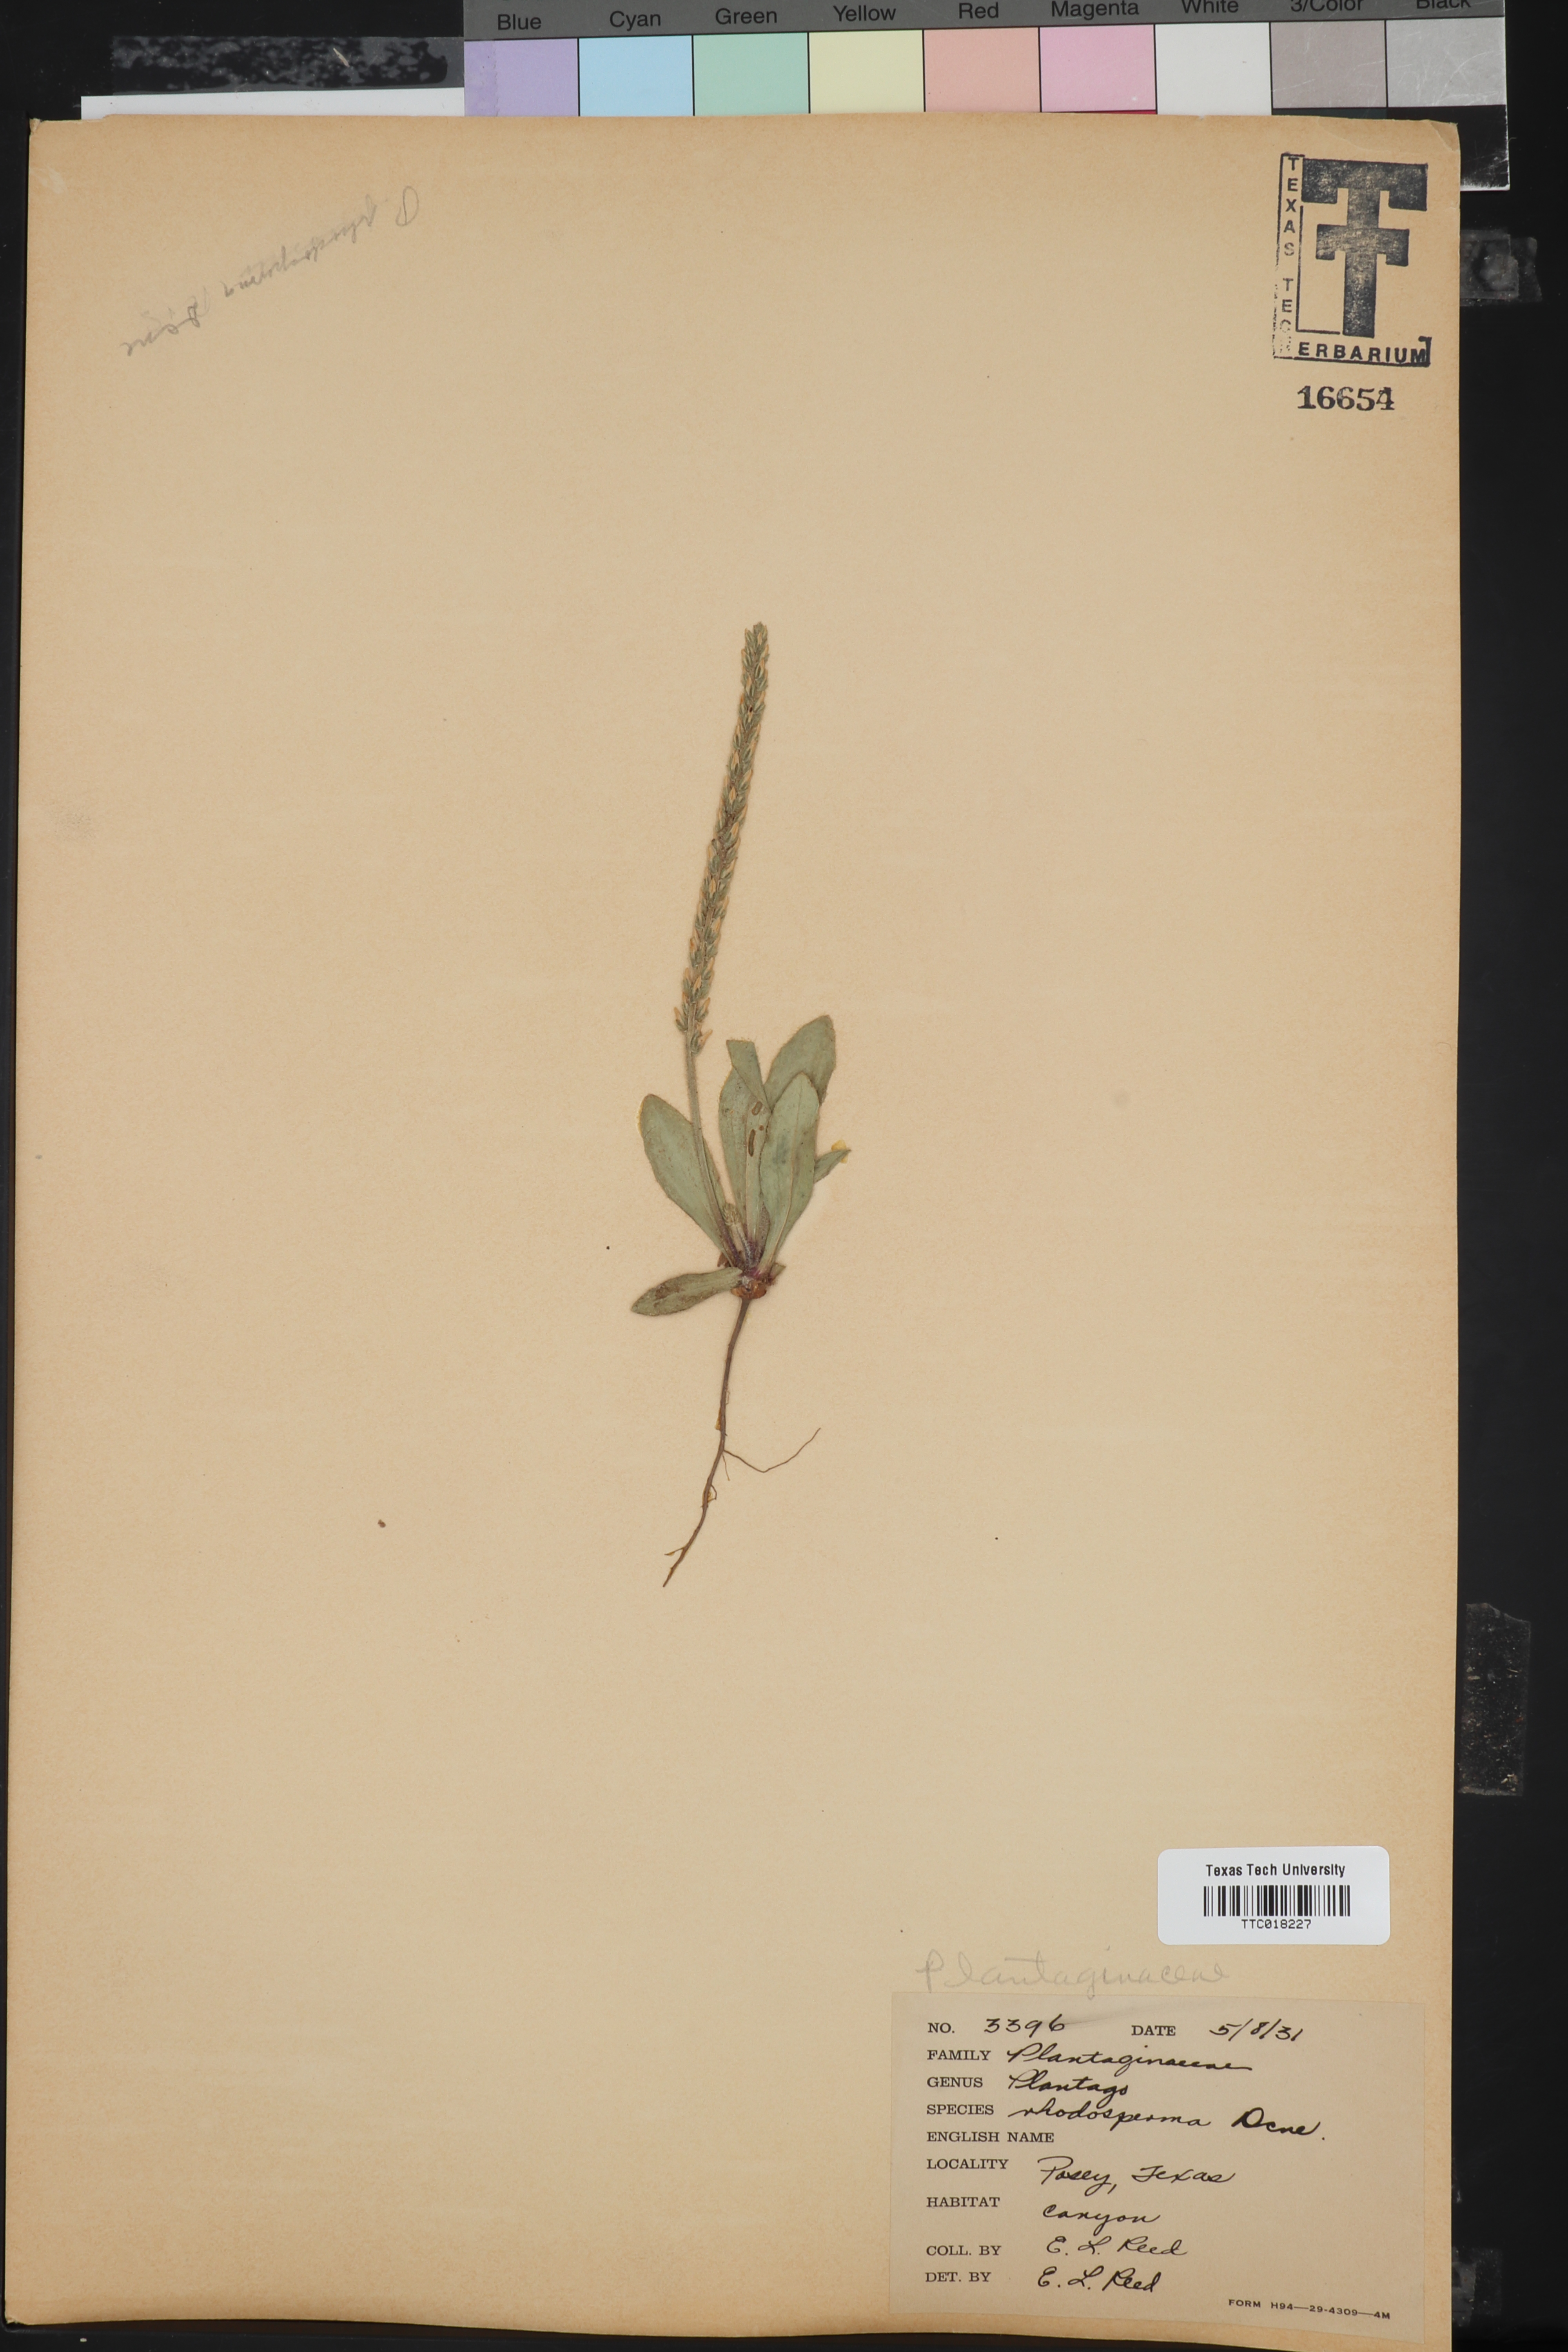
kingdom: Plantae
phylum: Tracheophyta
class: Magnoliopsida
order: Lamiales
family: Plantaginaceae
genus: Plantago
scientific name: Plantago rhodosperma
